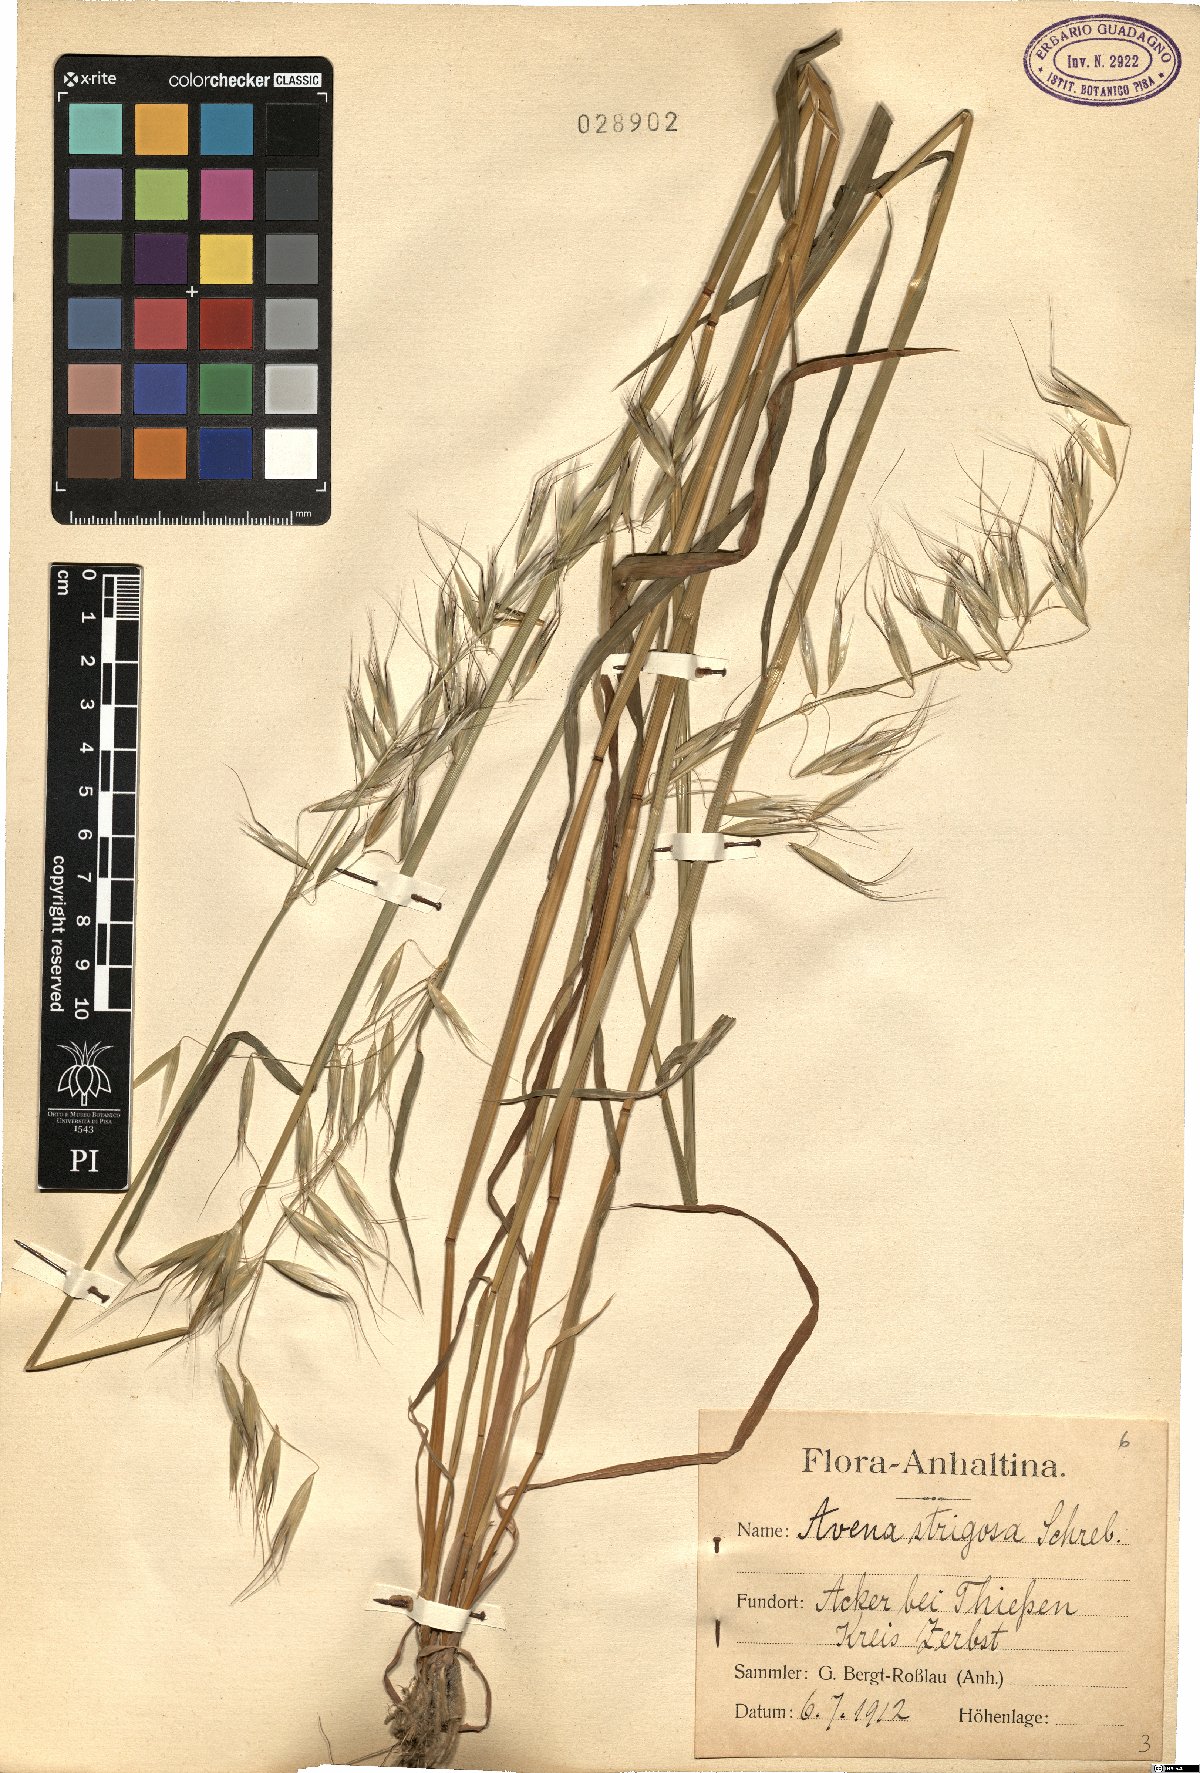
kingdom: Plantae
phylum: Tracheophyta
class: Liliopsida
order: Poales
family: Poaceae
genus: Avena
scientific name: Avena strigosa
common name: Bristle oat
